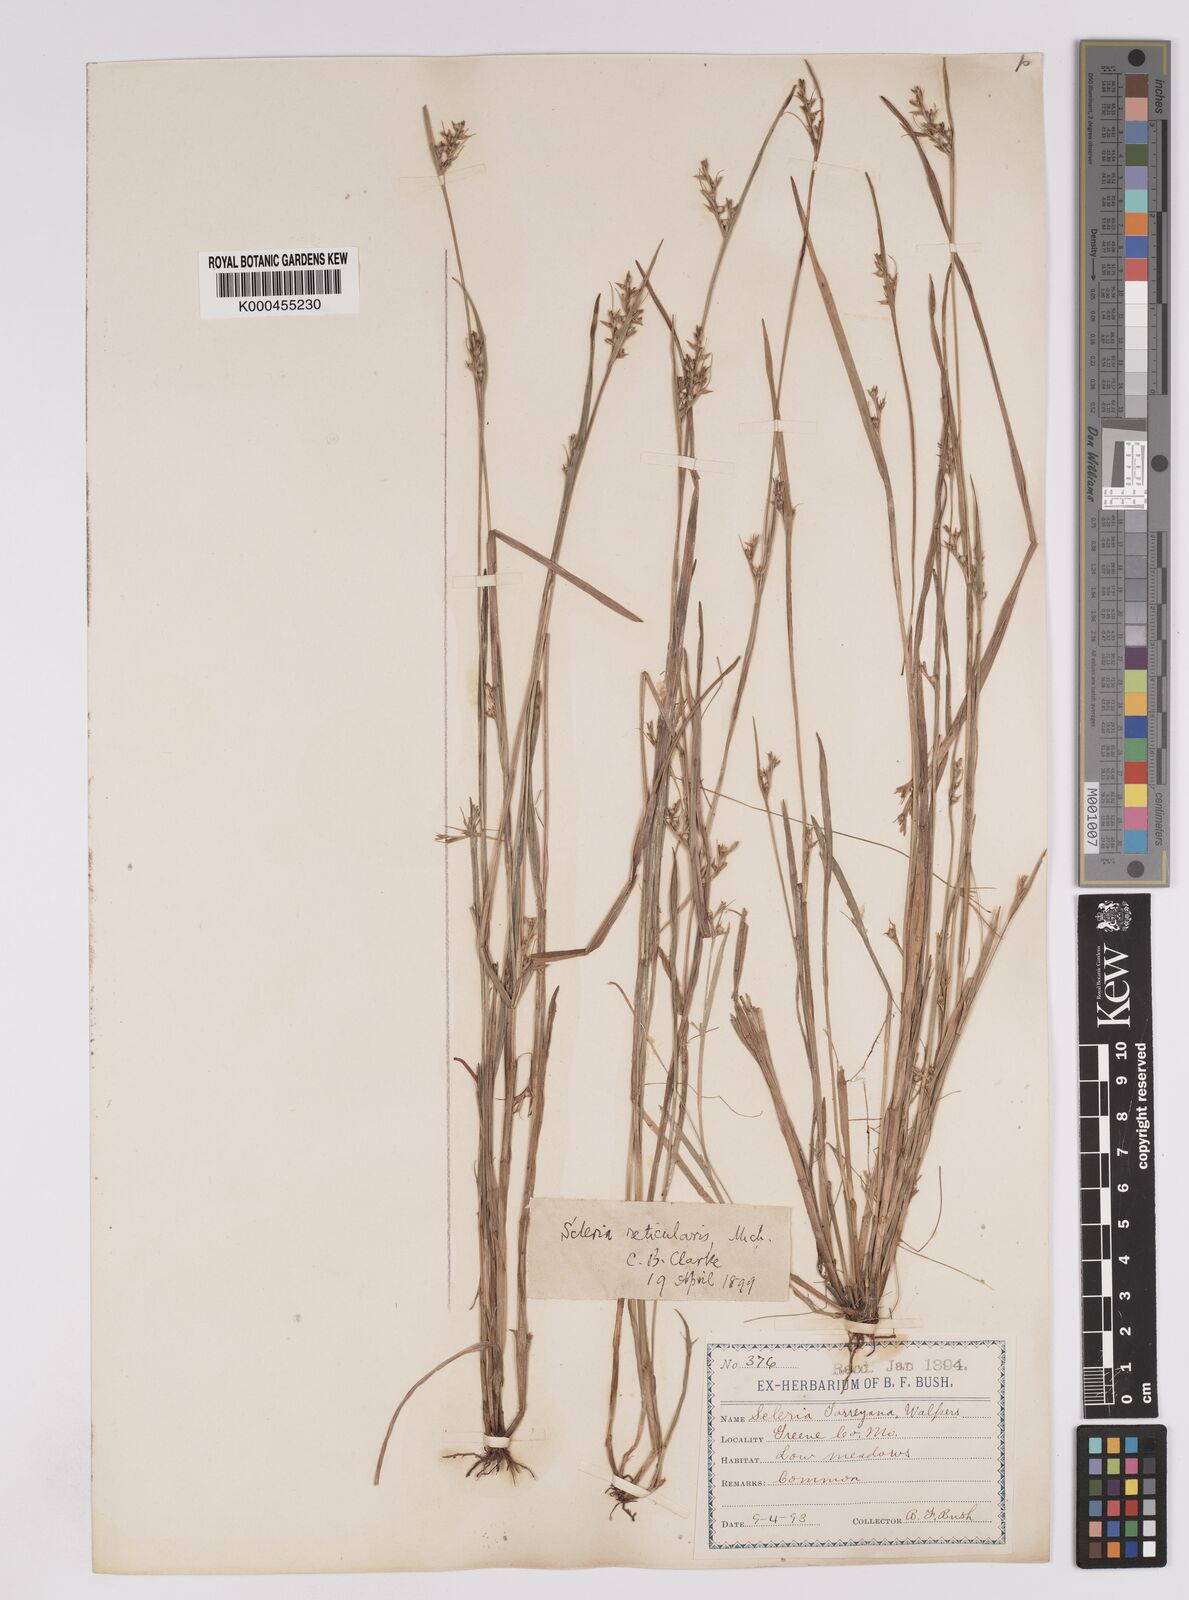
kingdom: Plantae
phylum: Tracheophyta
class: Liliopsida
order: Poales
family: Cyperaceae
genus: Scleria
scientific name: Scleria
